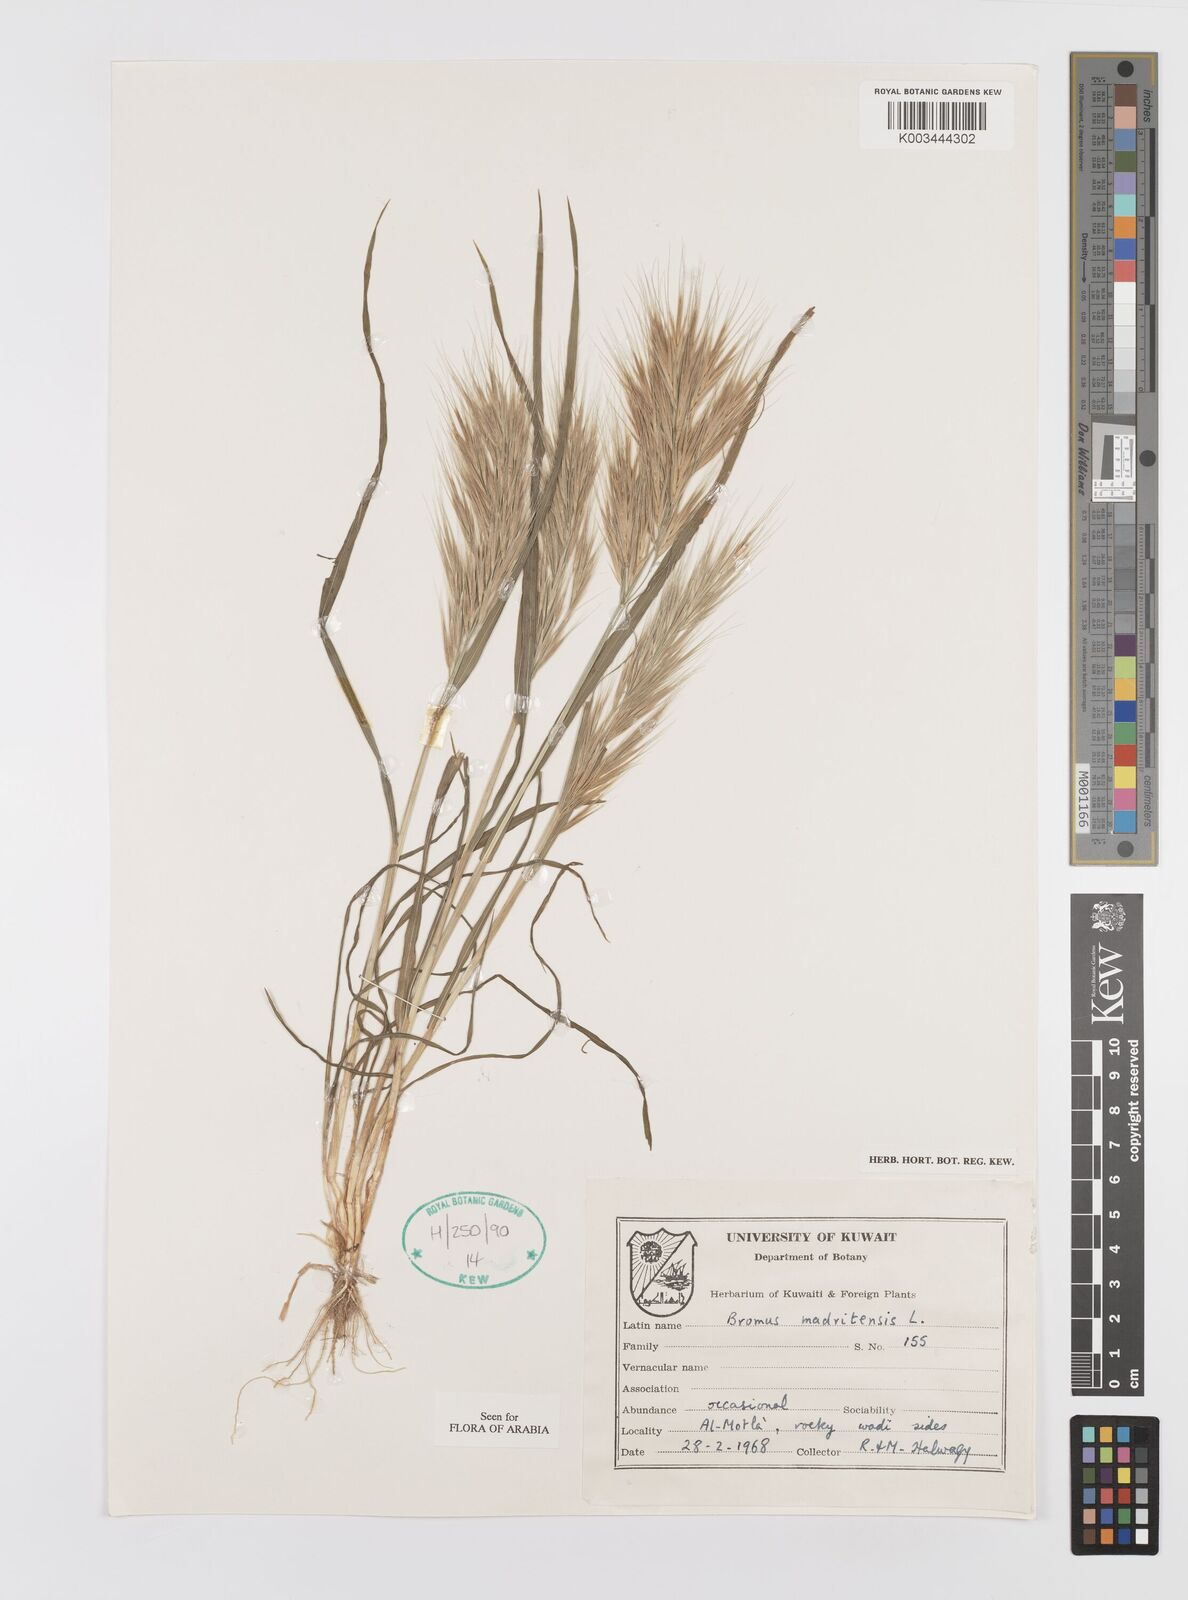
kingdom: Plantae
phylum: Tracheophyta
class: Liliopsida
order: Poales
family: Poaceae
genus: Bromus
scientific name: Bromus madritensis
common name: Compact brome
